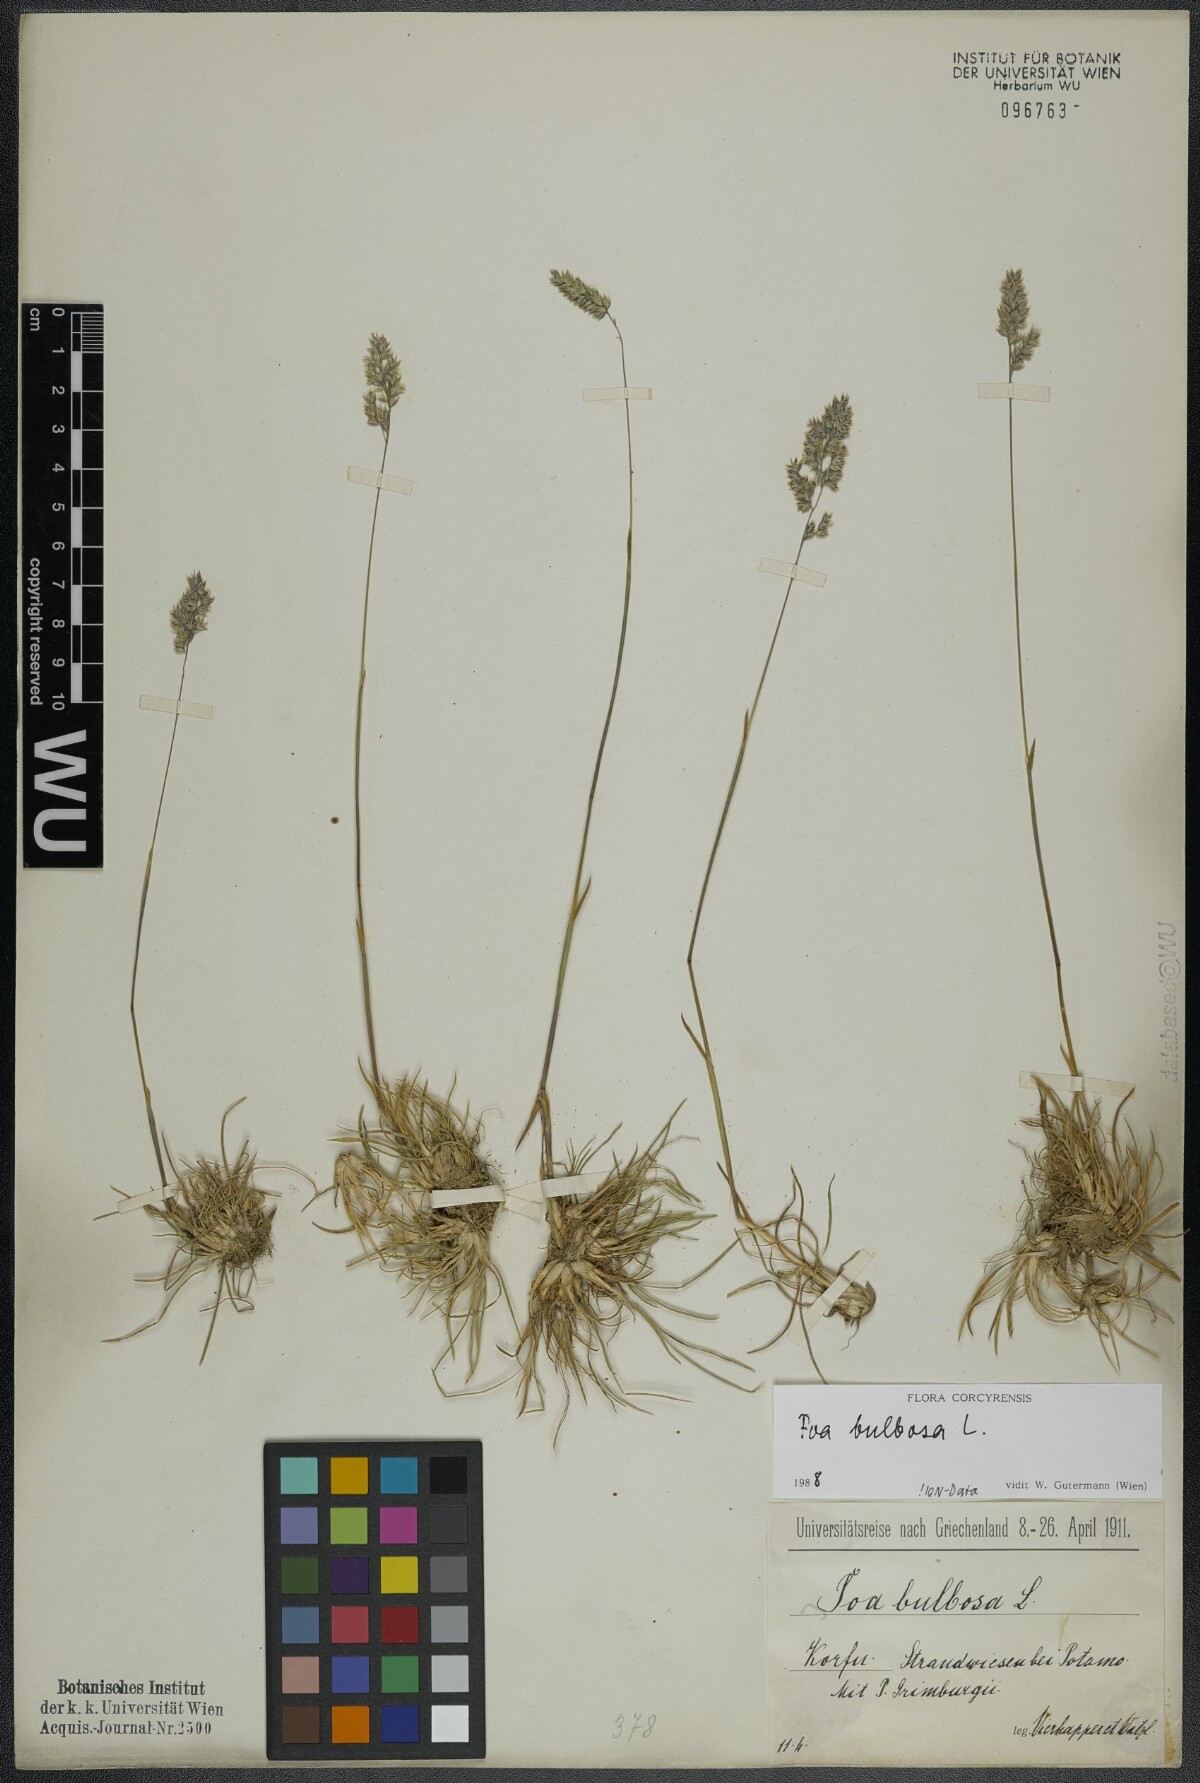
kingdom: Plantae
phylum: Tracheophyta
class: Liliopsida
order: Poales
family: Poaceae
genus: Poa
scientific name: Poa bulbosa
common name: Bulbous bluegrass
